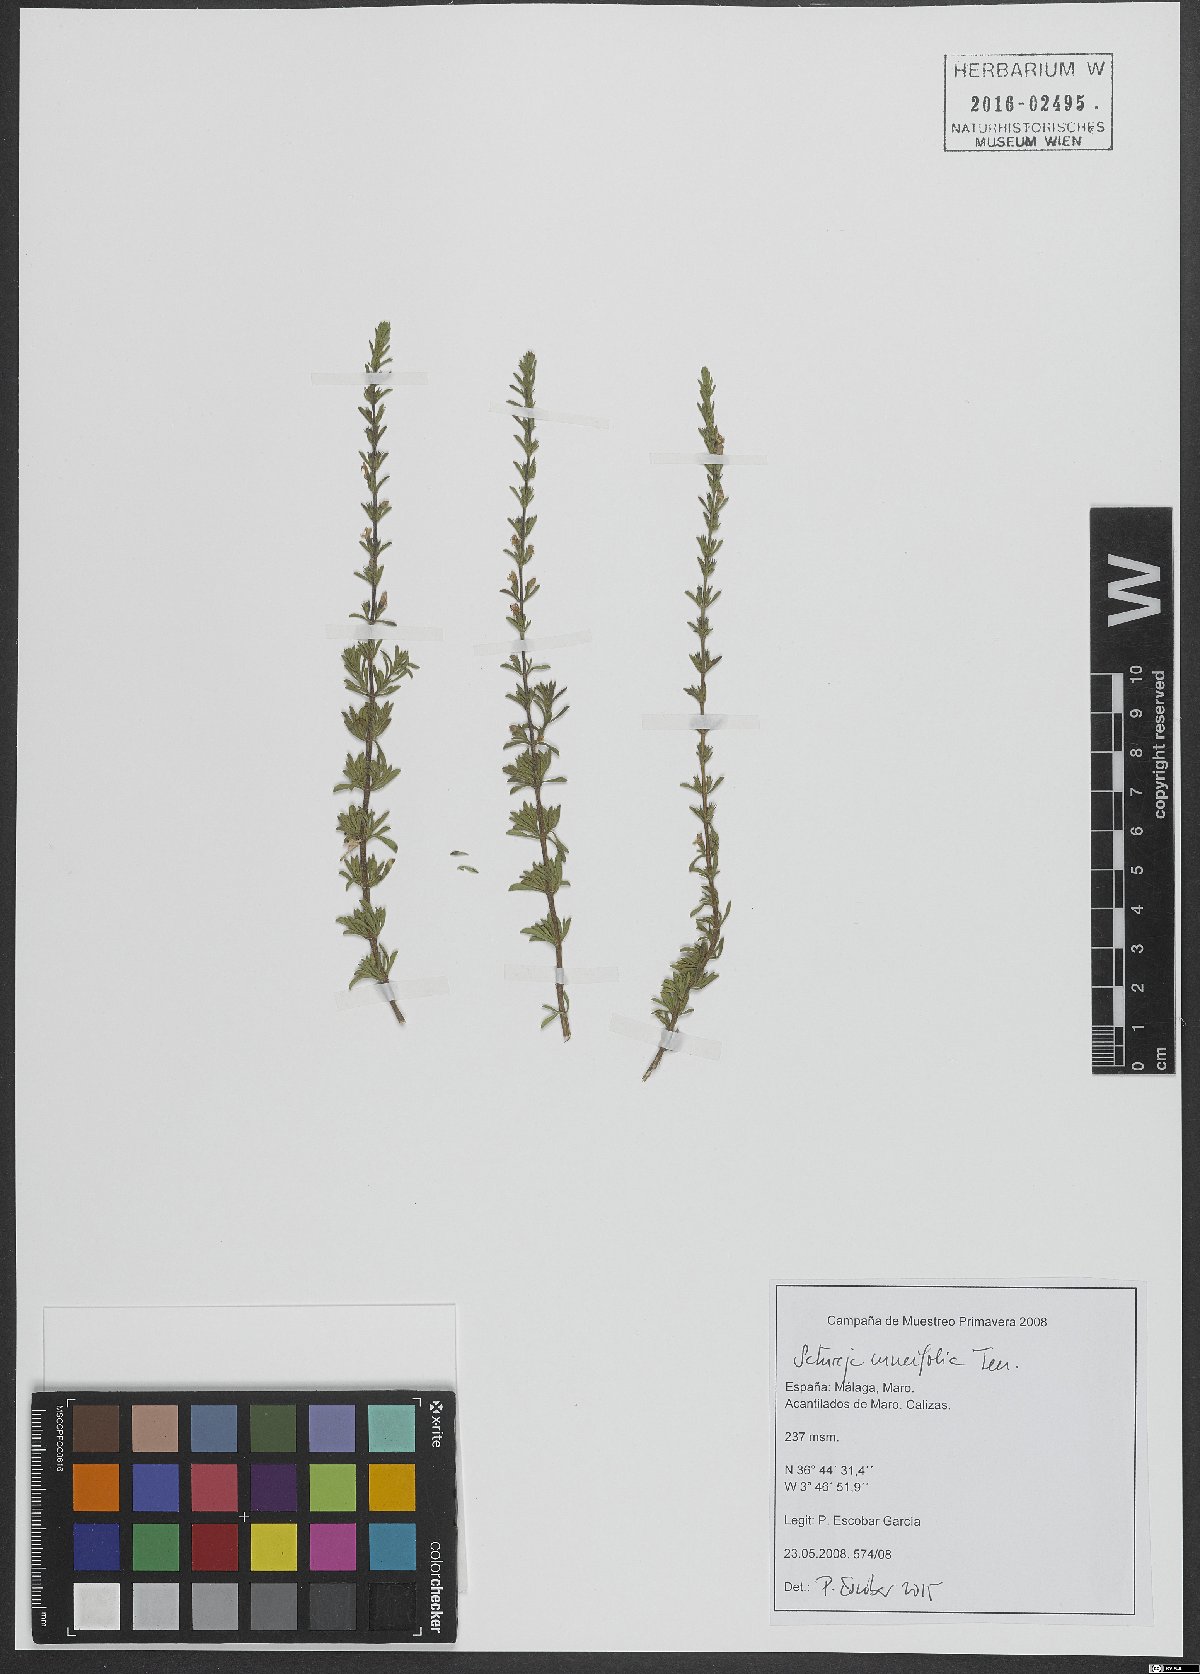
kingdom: Plantae
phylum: Tracheophyta
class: Magnoliopsida
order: Lamiales
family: Lamiaceae
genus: Satureja
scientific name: Satureja cuneifolia
